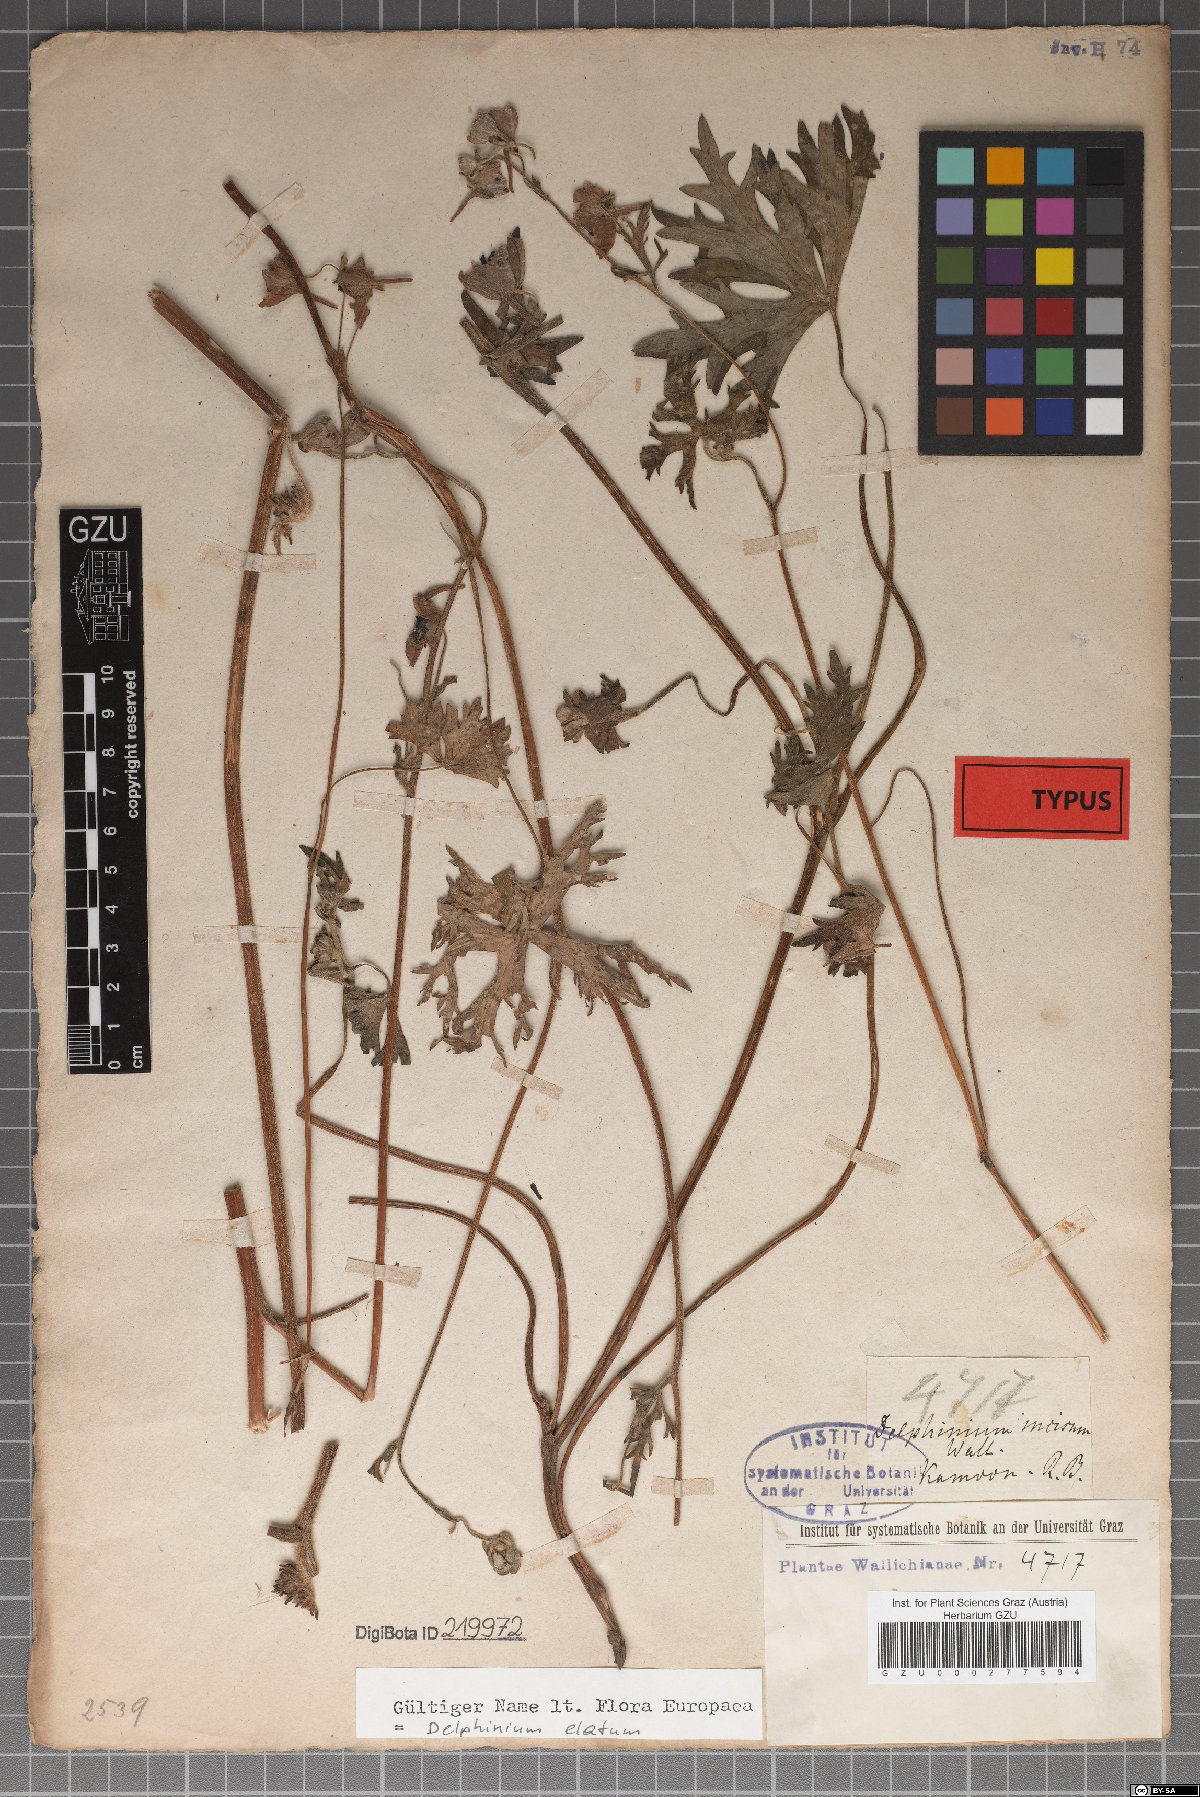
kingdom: Plantae
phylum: Tracheophyta
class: Magnoliopsida
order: Ranunculales
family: Ranunculaceae
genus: Delphinium
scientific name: Delphinium elatum
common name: Candle larkspur
